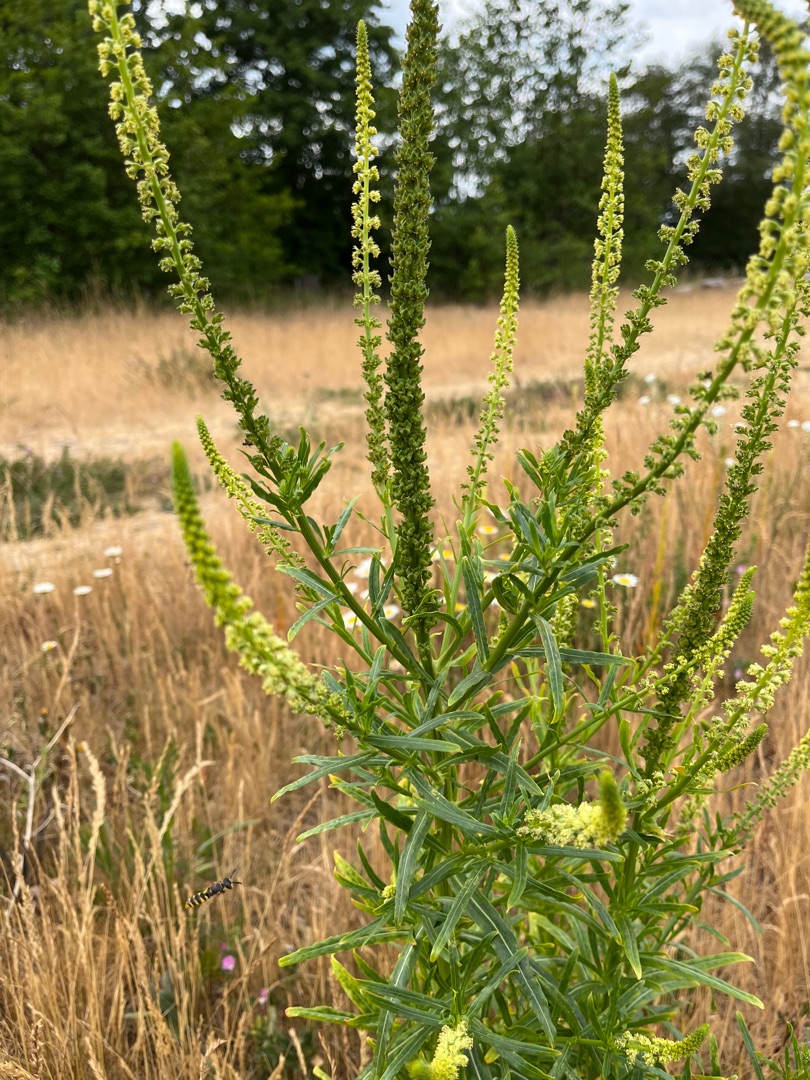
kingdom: Plantae
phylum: Tracheophyta
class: Magnoliopsida
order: Brassicales
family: Resedaceae
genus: Reseda
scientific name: Reseda luteola
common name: Farve-reseda
